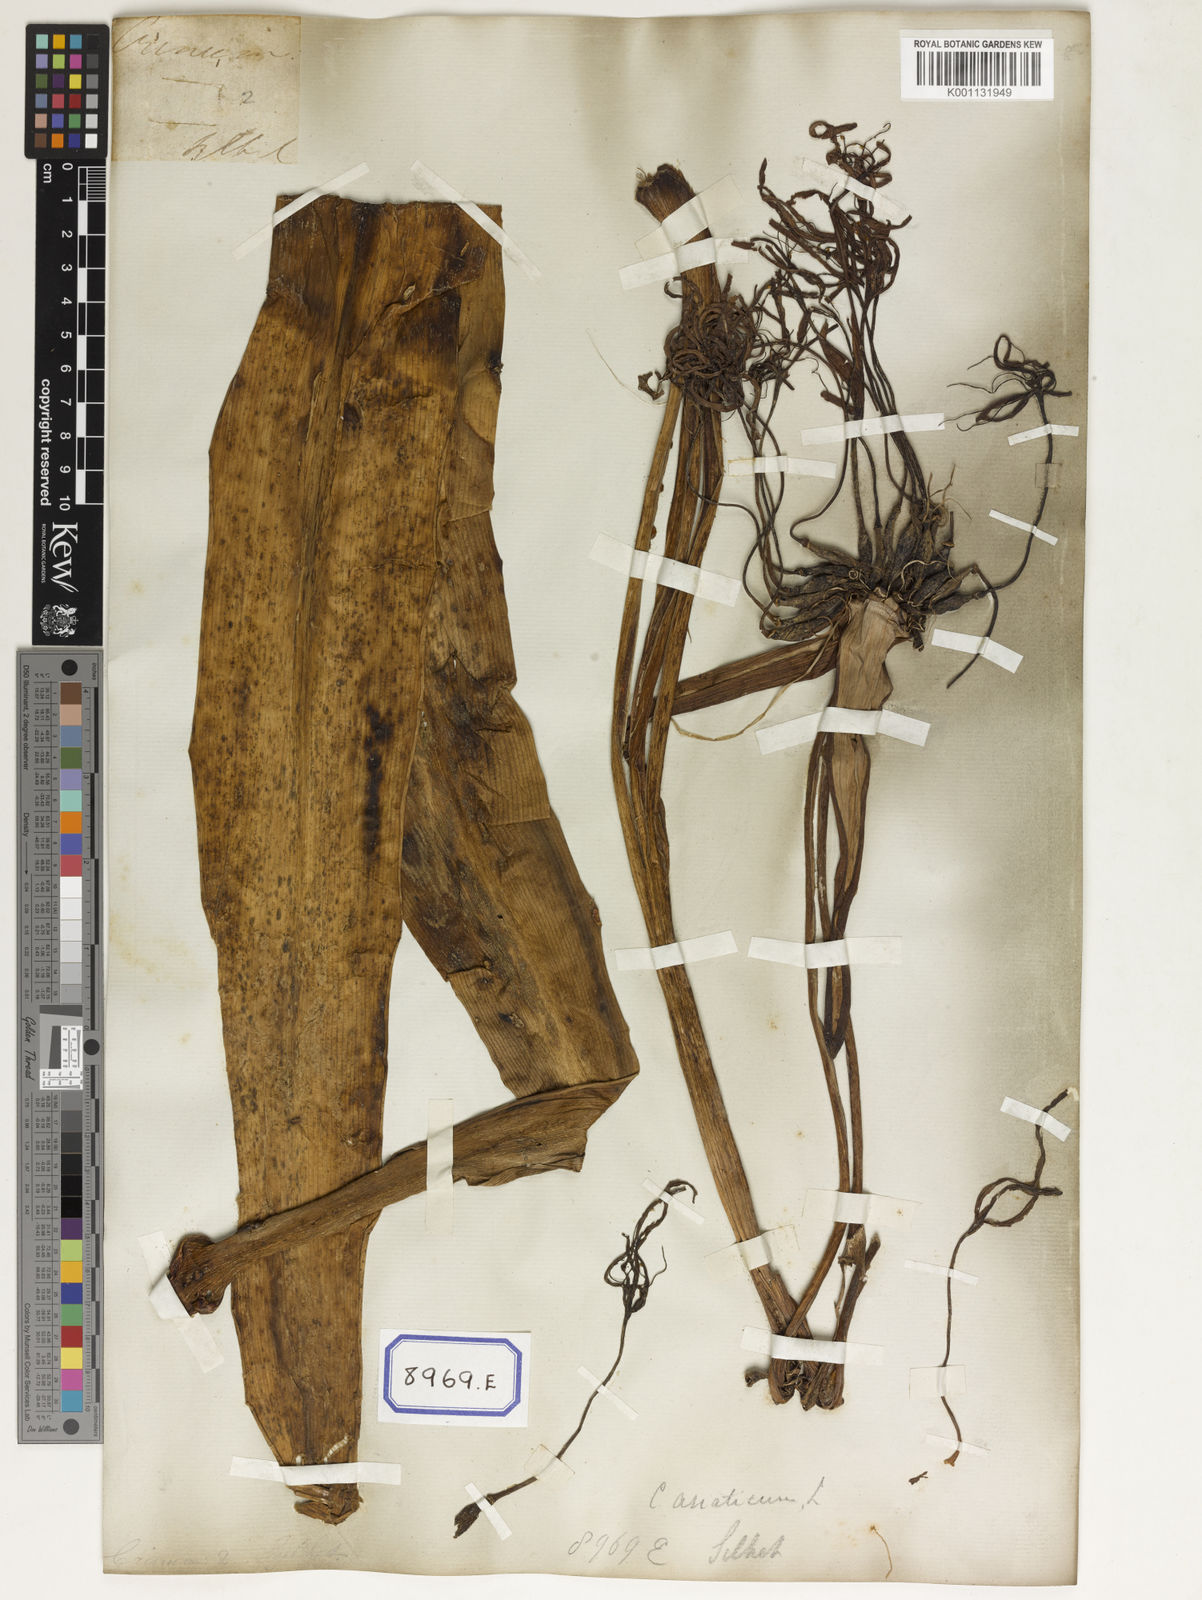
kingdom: Plantae
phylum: Tracheophyta
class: Liliopsida
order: Asparagales
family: Amaryllidaceae
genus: Crinum
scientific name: Crinum asiaticum
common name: Poisonbulb
